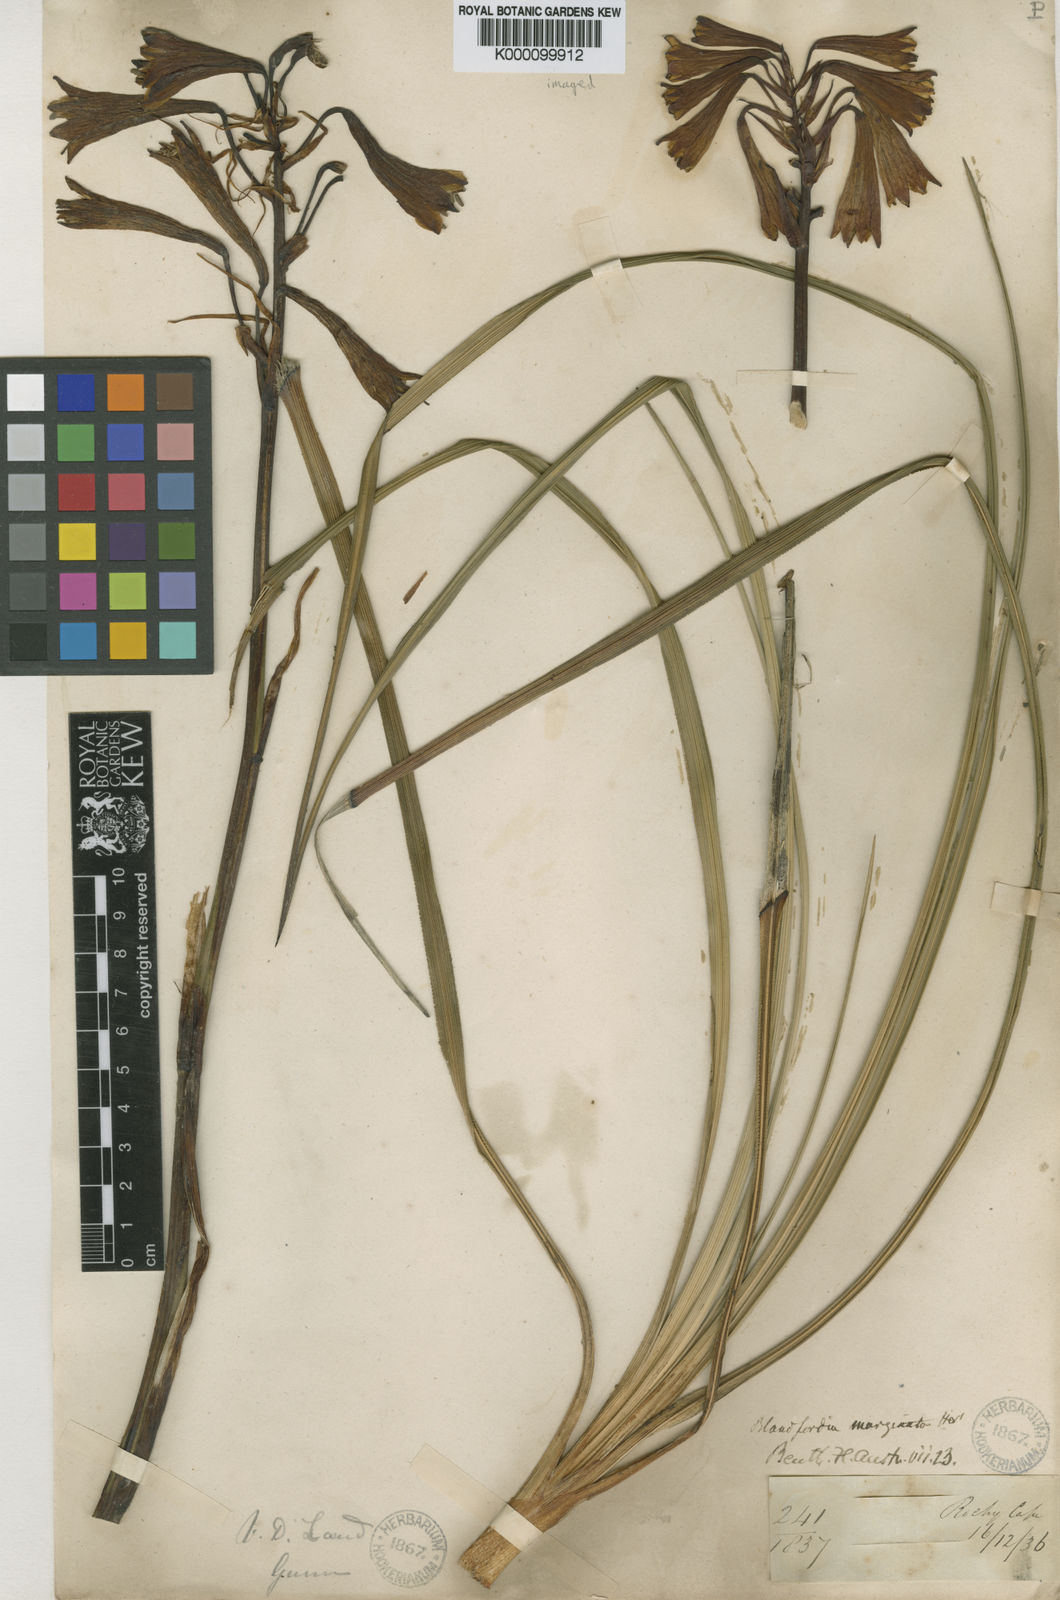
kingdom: Plantae
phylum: Tracheophyta
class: Liliopsida
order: Asparagales
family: Blandfordiaceae
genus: Blandfordia
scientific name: Blandfordia punicea
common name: Tasmanian christmas-bell
